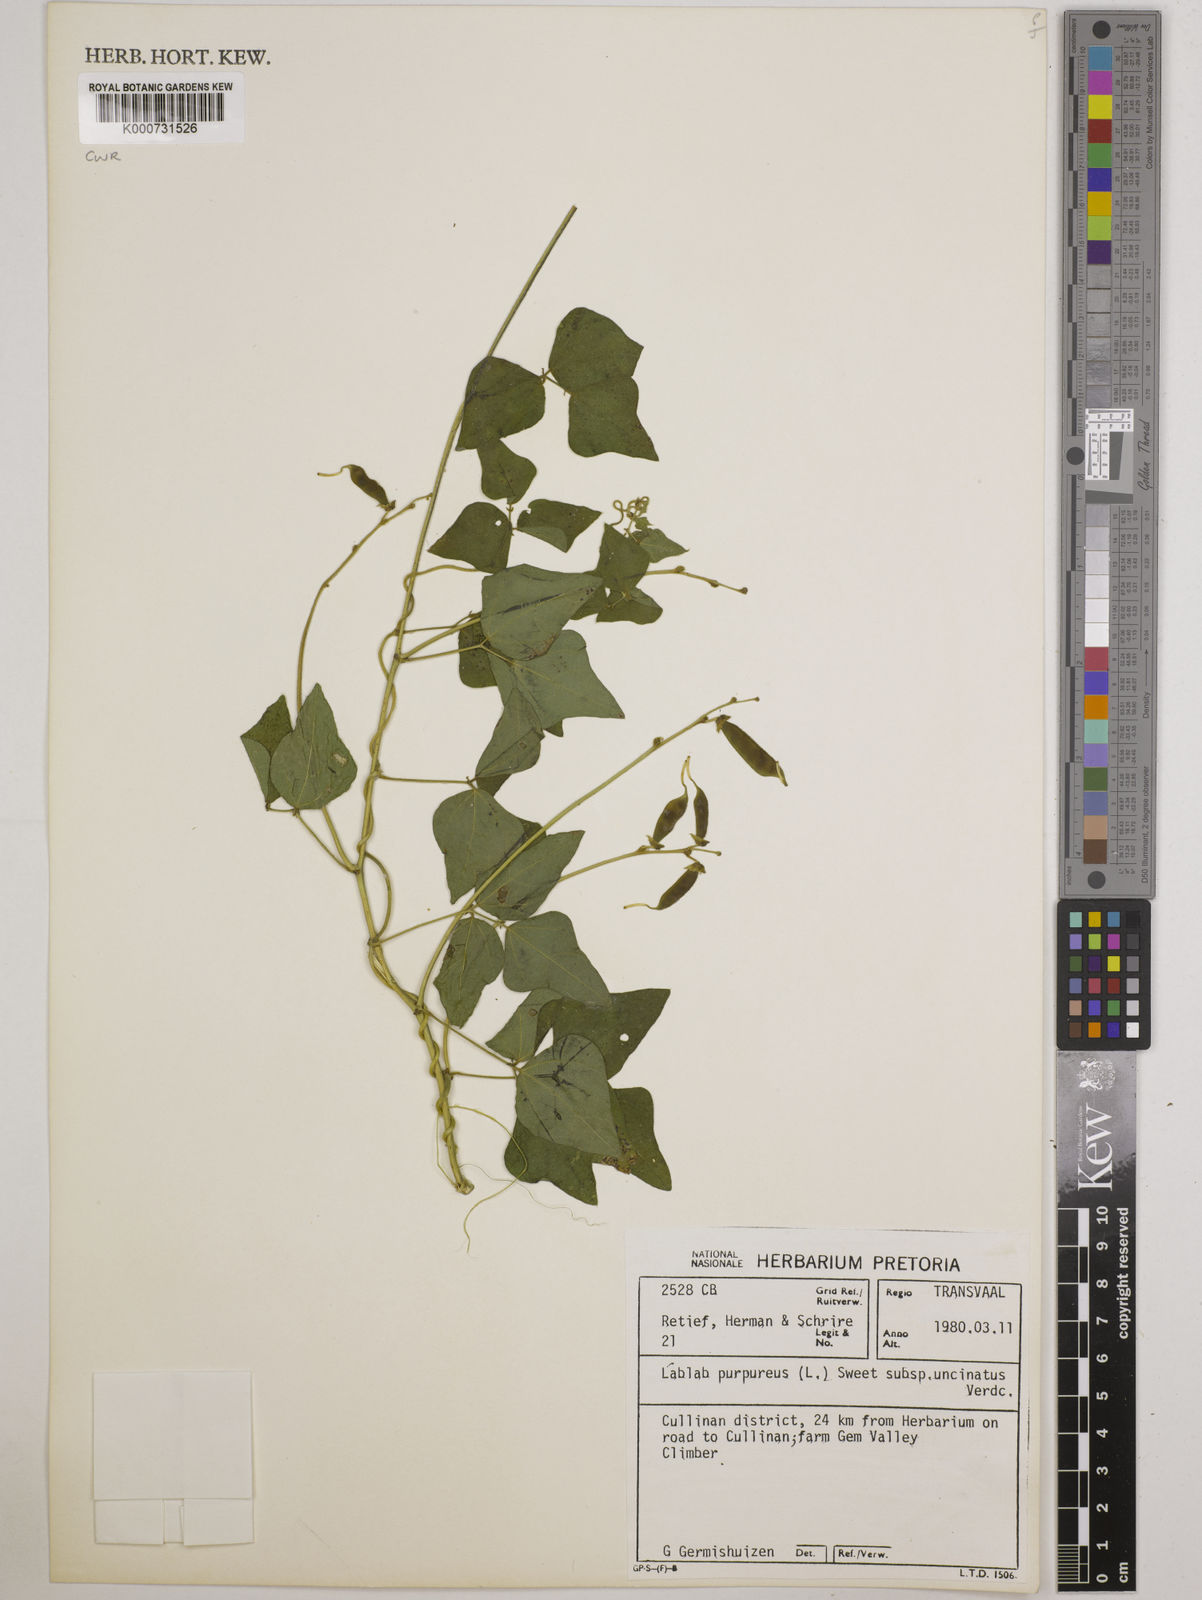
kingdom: Plantae
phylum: Tracheophyta
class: Magnoliopsida
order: Fabales
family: Fabaceae
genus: Lablab
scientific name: Lablab purpureus
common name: Lablab-bean
